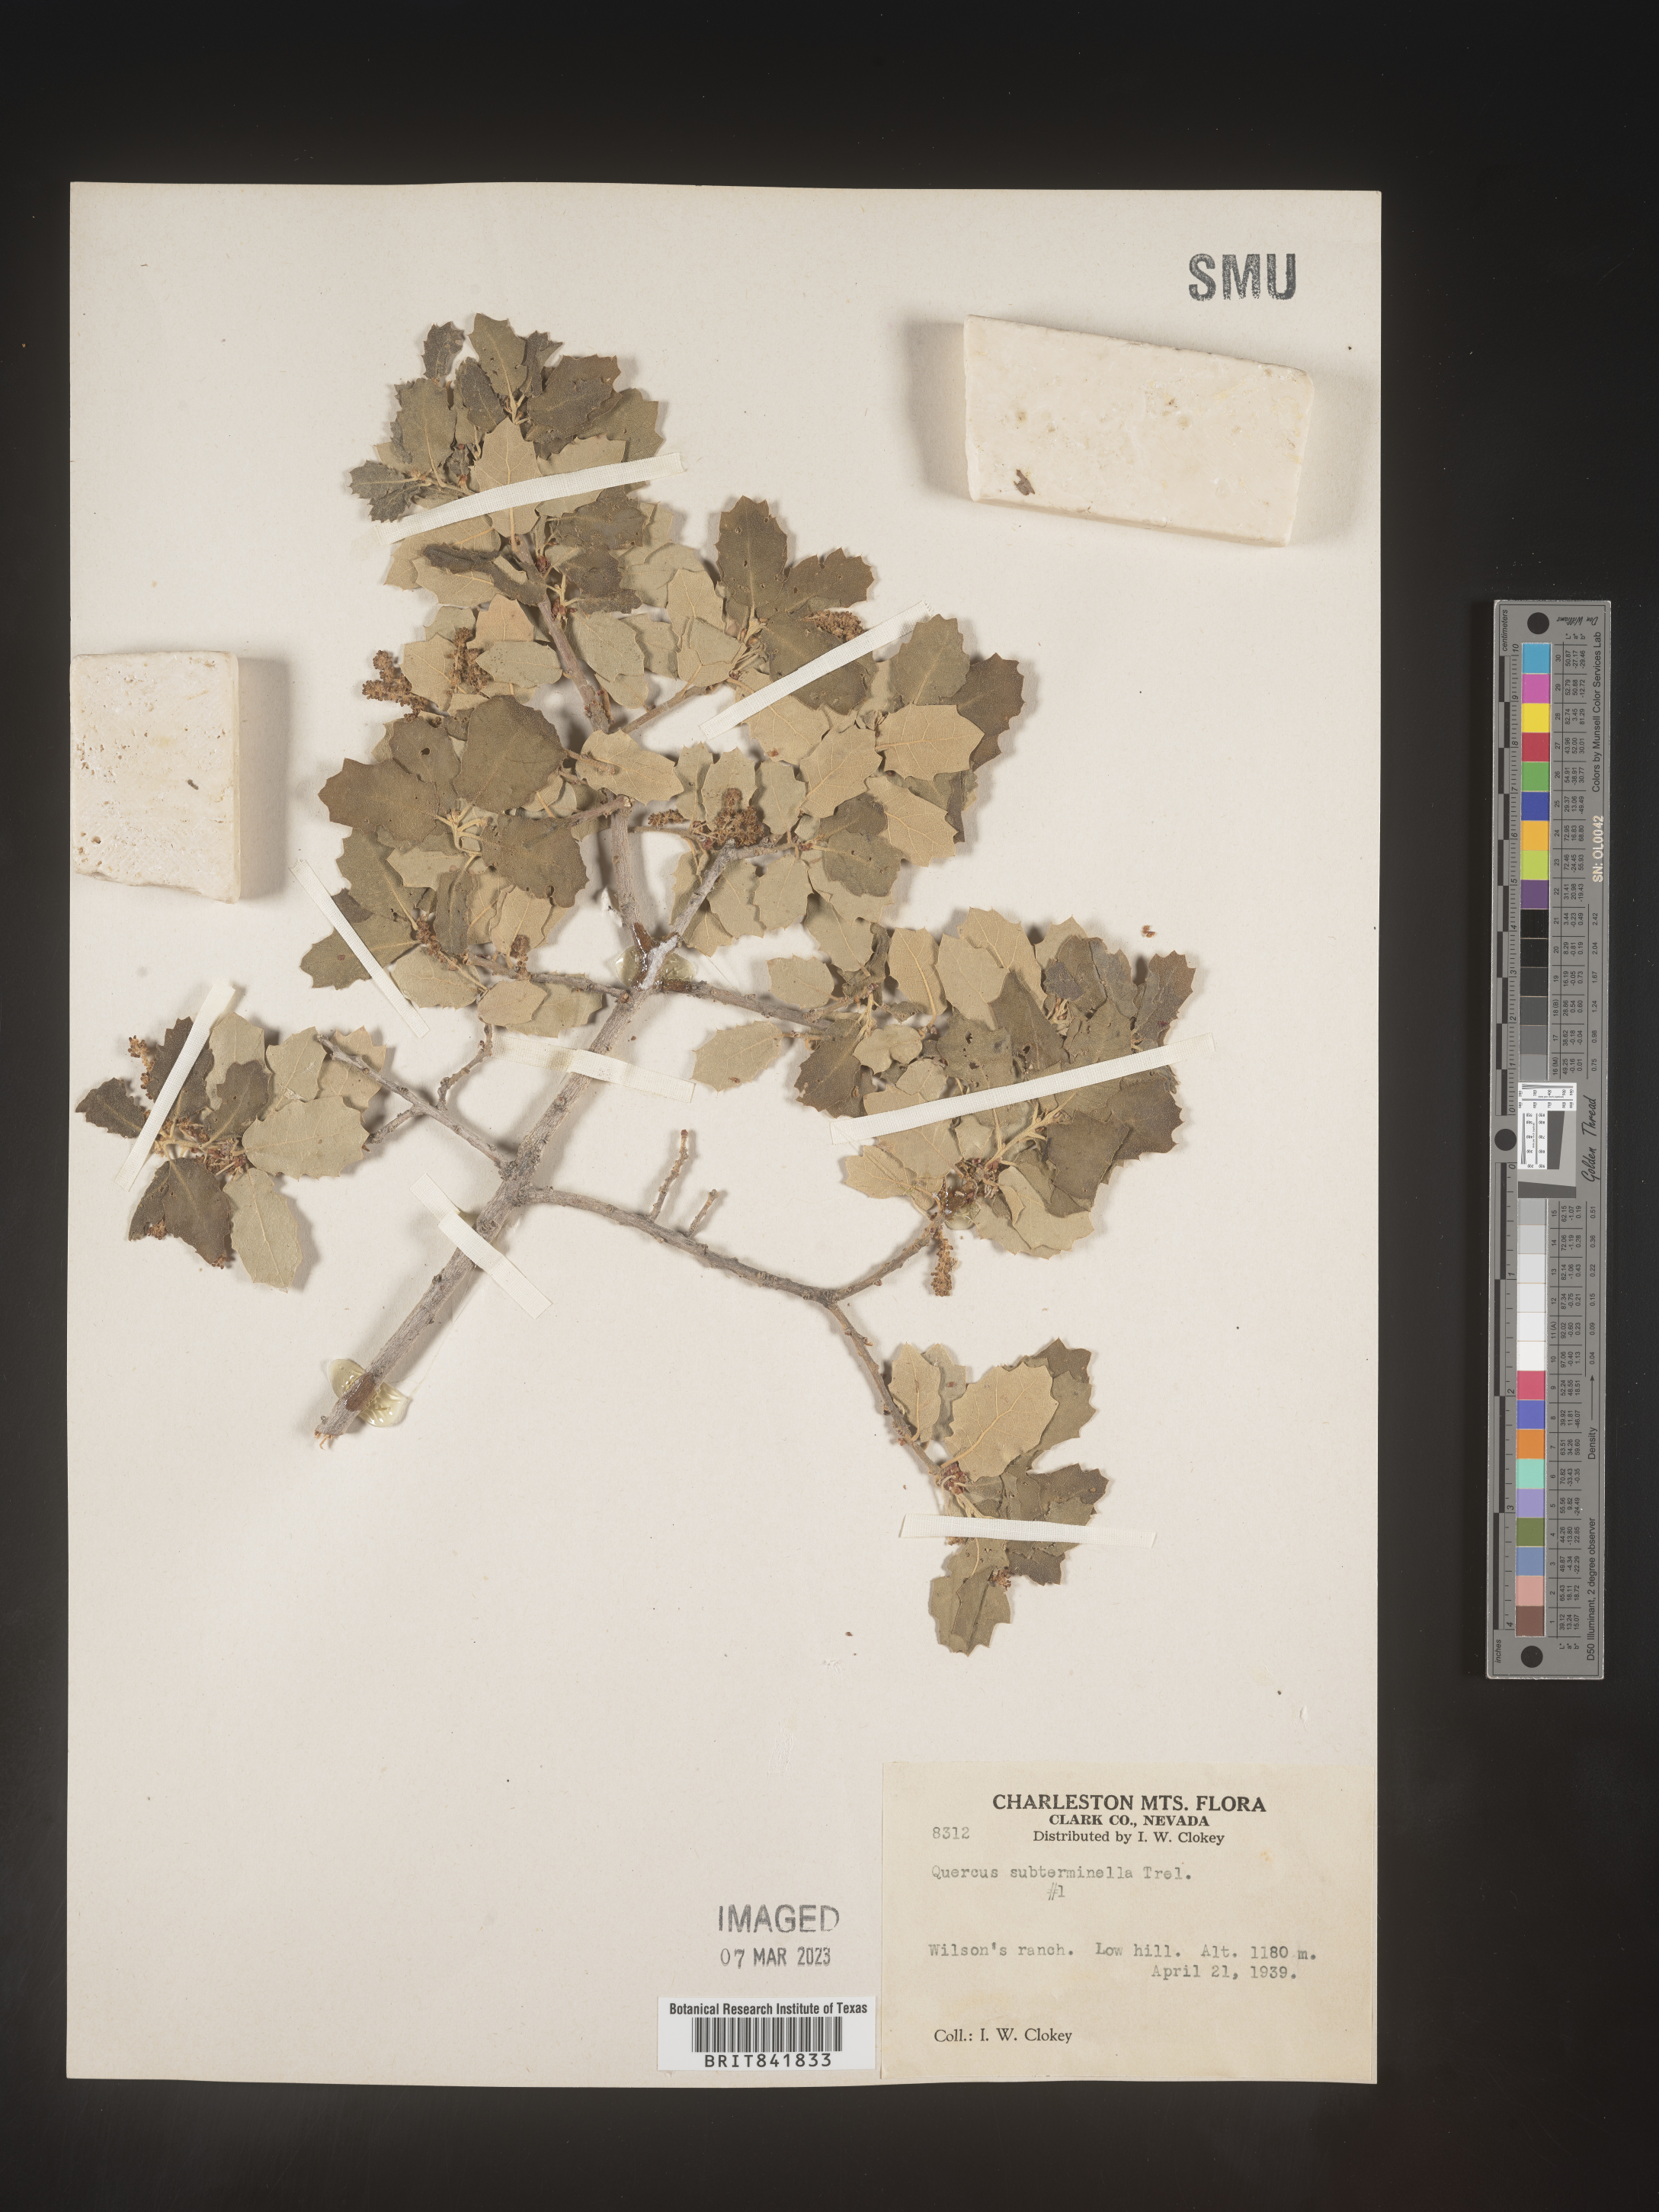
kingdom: Plantae
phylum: Tracheophyta
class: Magnoliopsida
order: Fagales
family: Fagaceae
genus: Quercus
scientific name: Quercus
